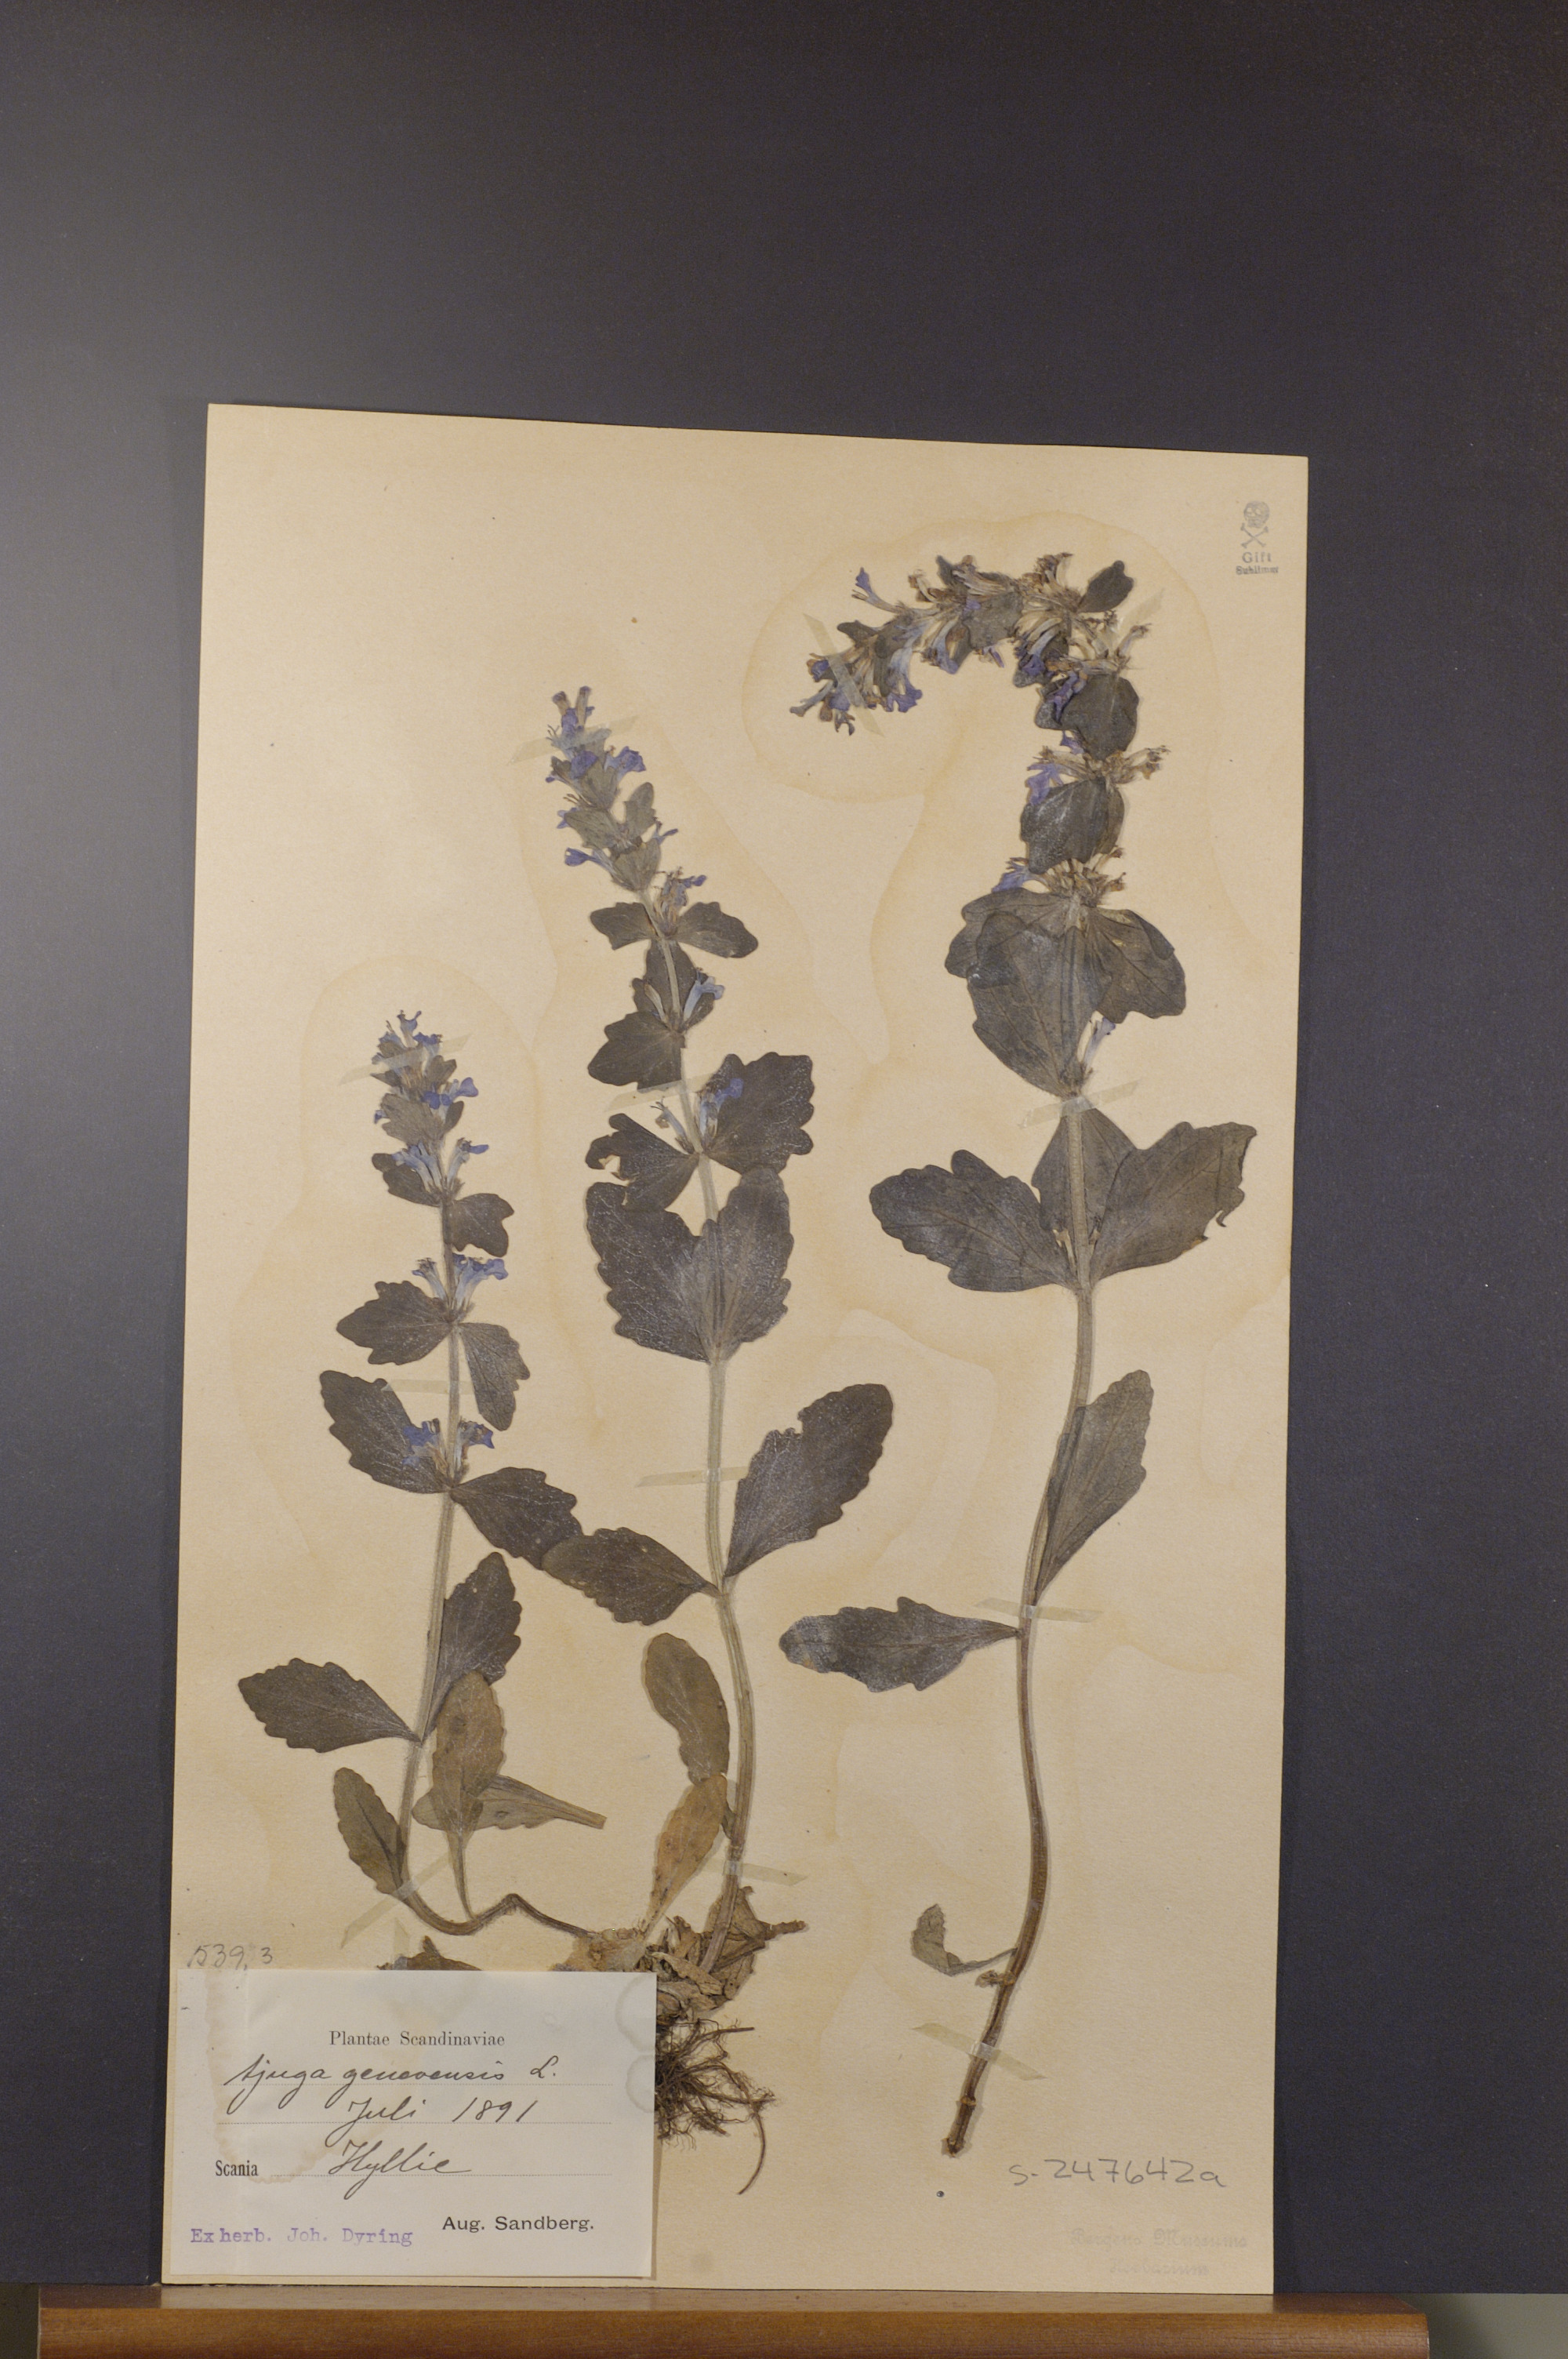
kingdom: Plantae
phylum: Tracheophyta
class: Magnoliopsida
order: Lamiales
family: Lamiaceae
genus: Ajuga
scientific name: Ajuga genevensis
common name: Blue bugle
